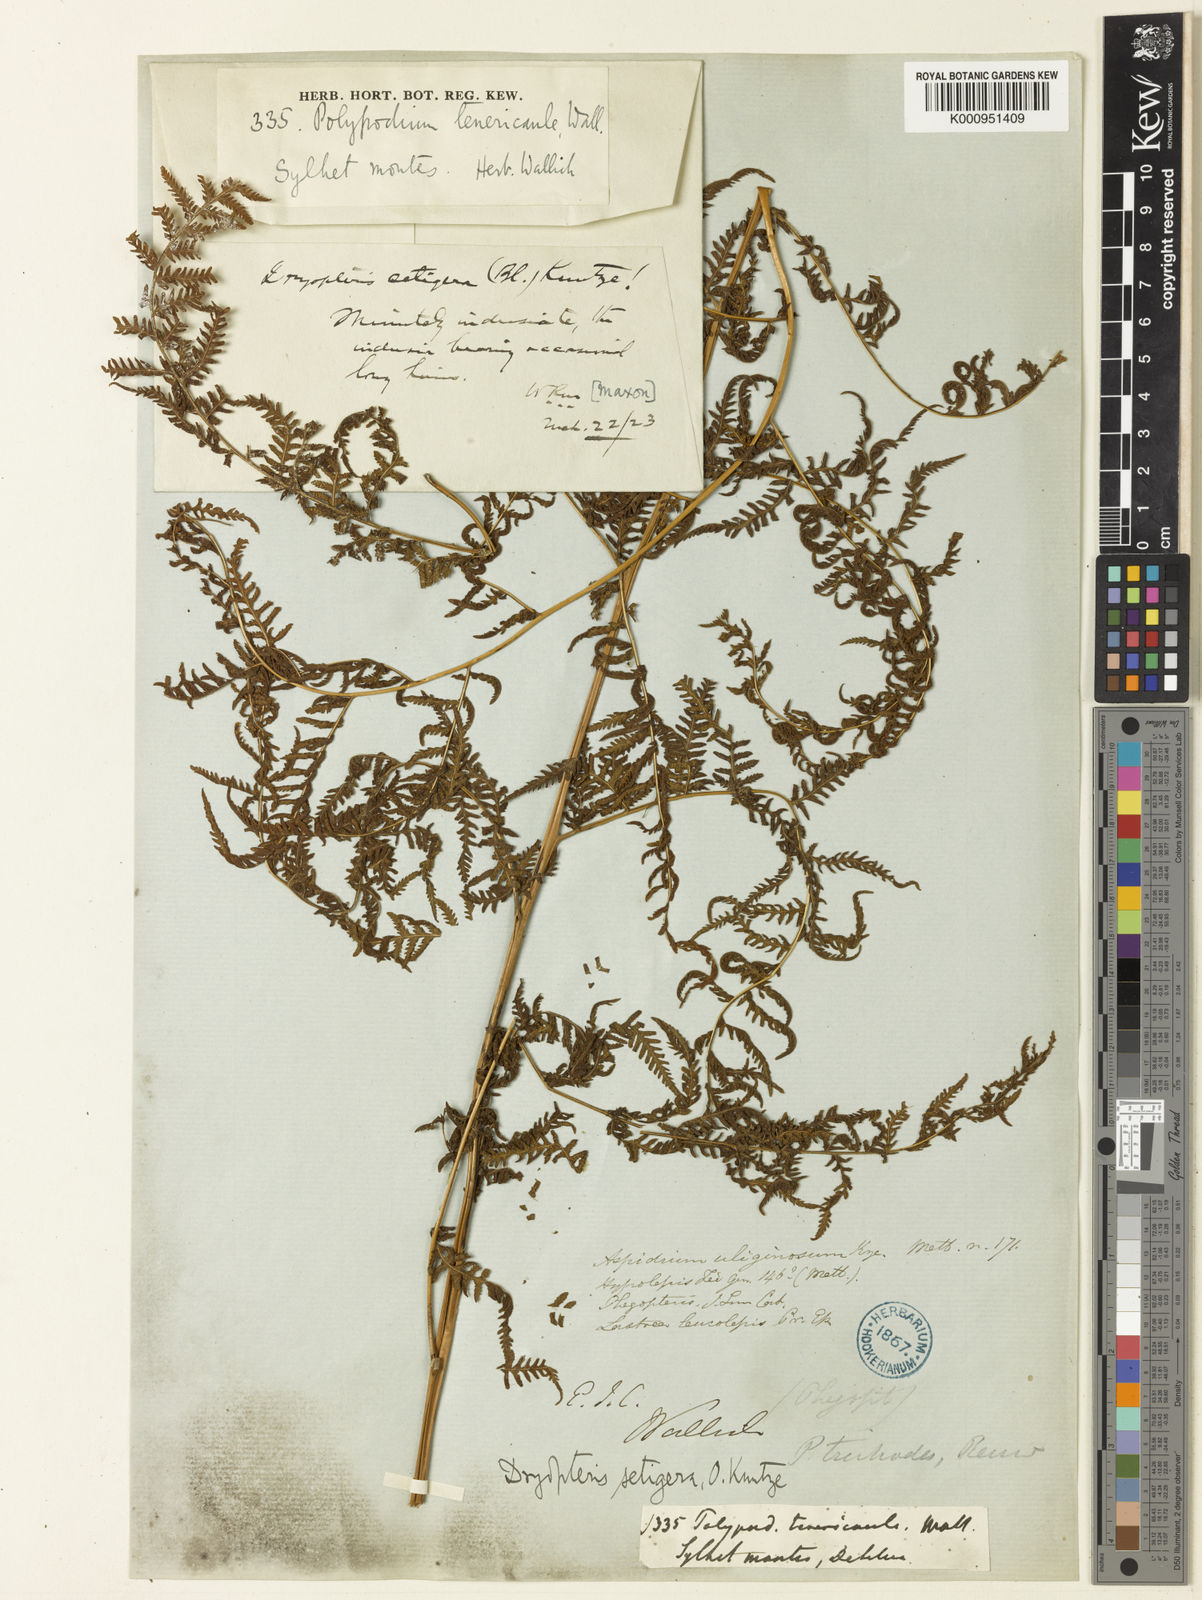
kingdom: Plantae
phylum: Tracheophyta
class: Polypodiopsida
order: Polypodiales
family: Thelypteridaceae
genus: Macrothelypteris
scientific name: Macrothelypteris torresiana
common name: Swordfern
